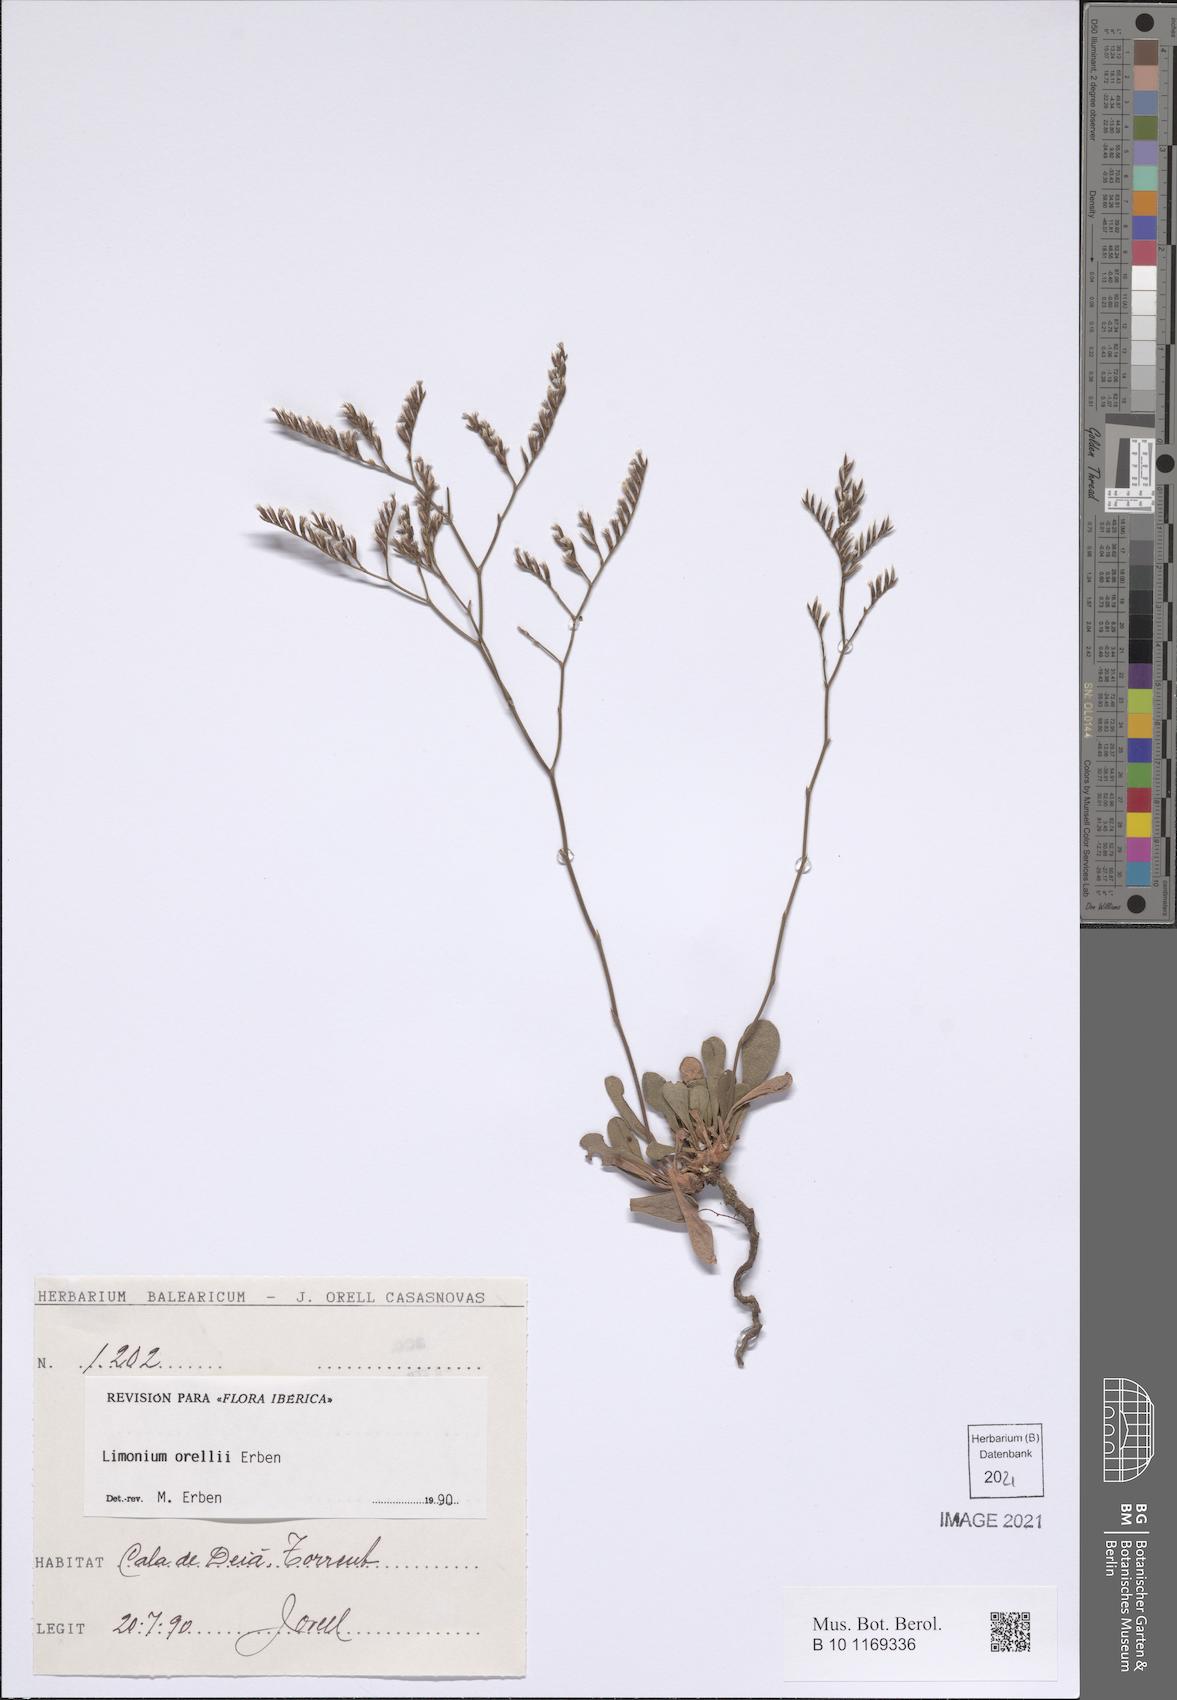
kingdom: Plantae
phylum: Tracheophyta
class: Magnoliopsida
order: Caryophyllales
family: Plumbaginaceae
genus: Limonium
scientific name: Limonium orellii
